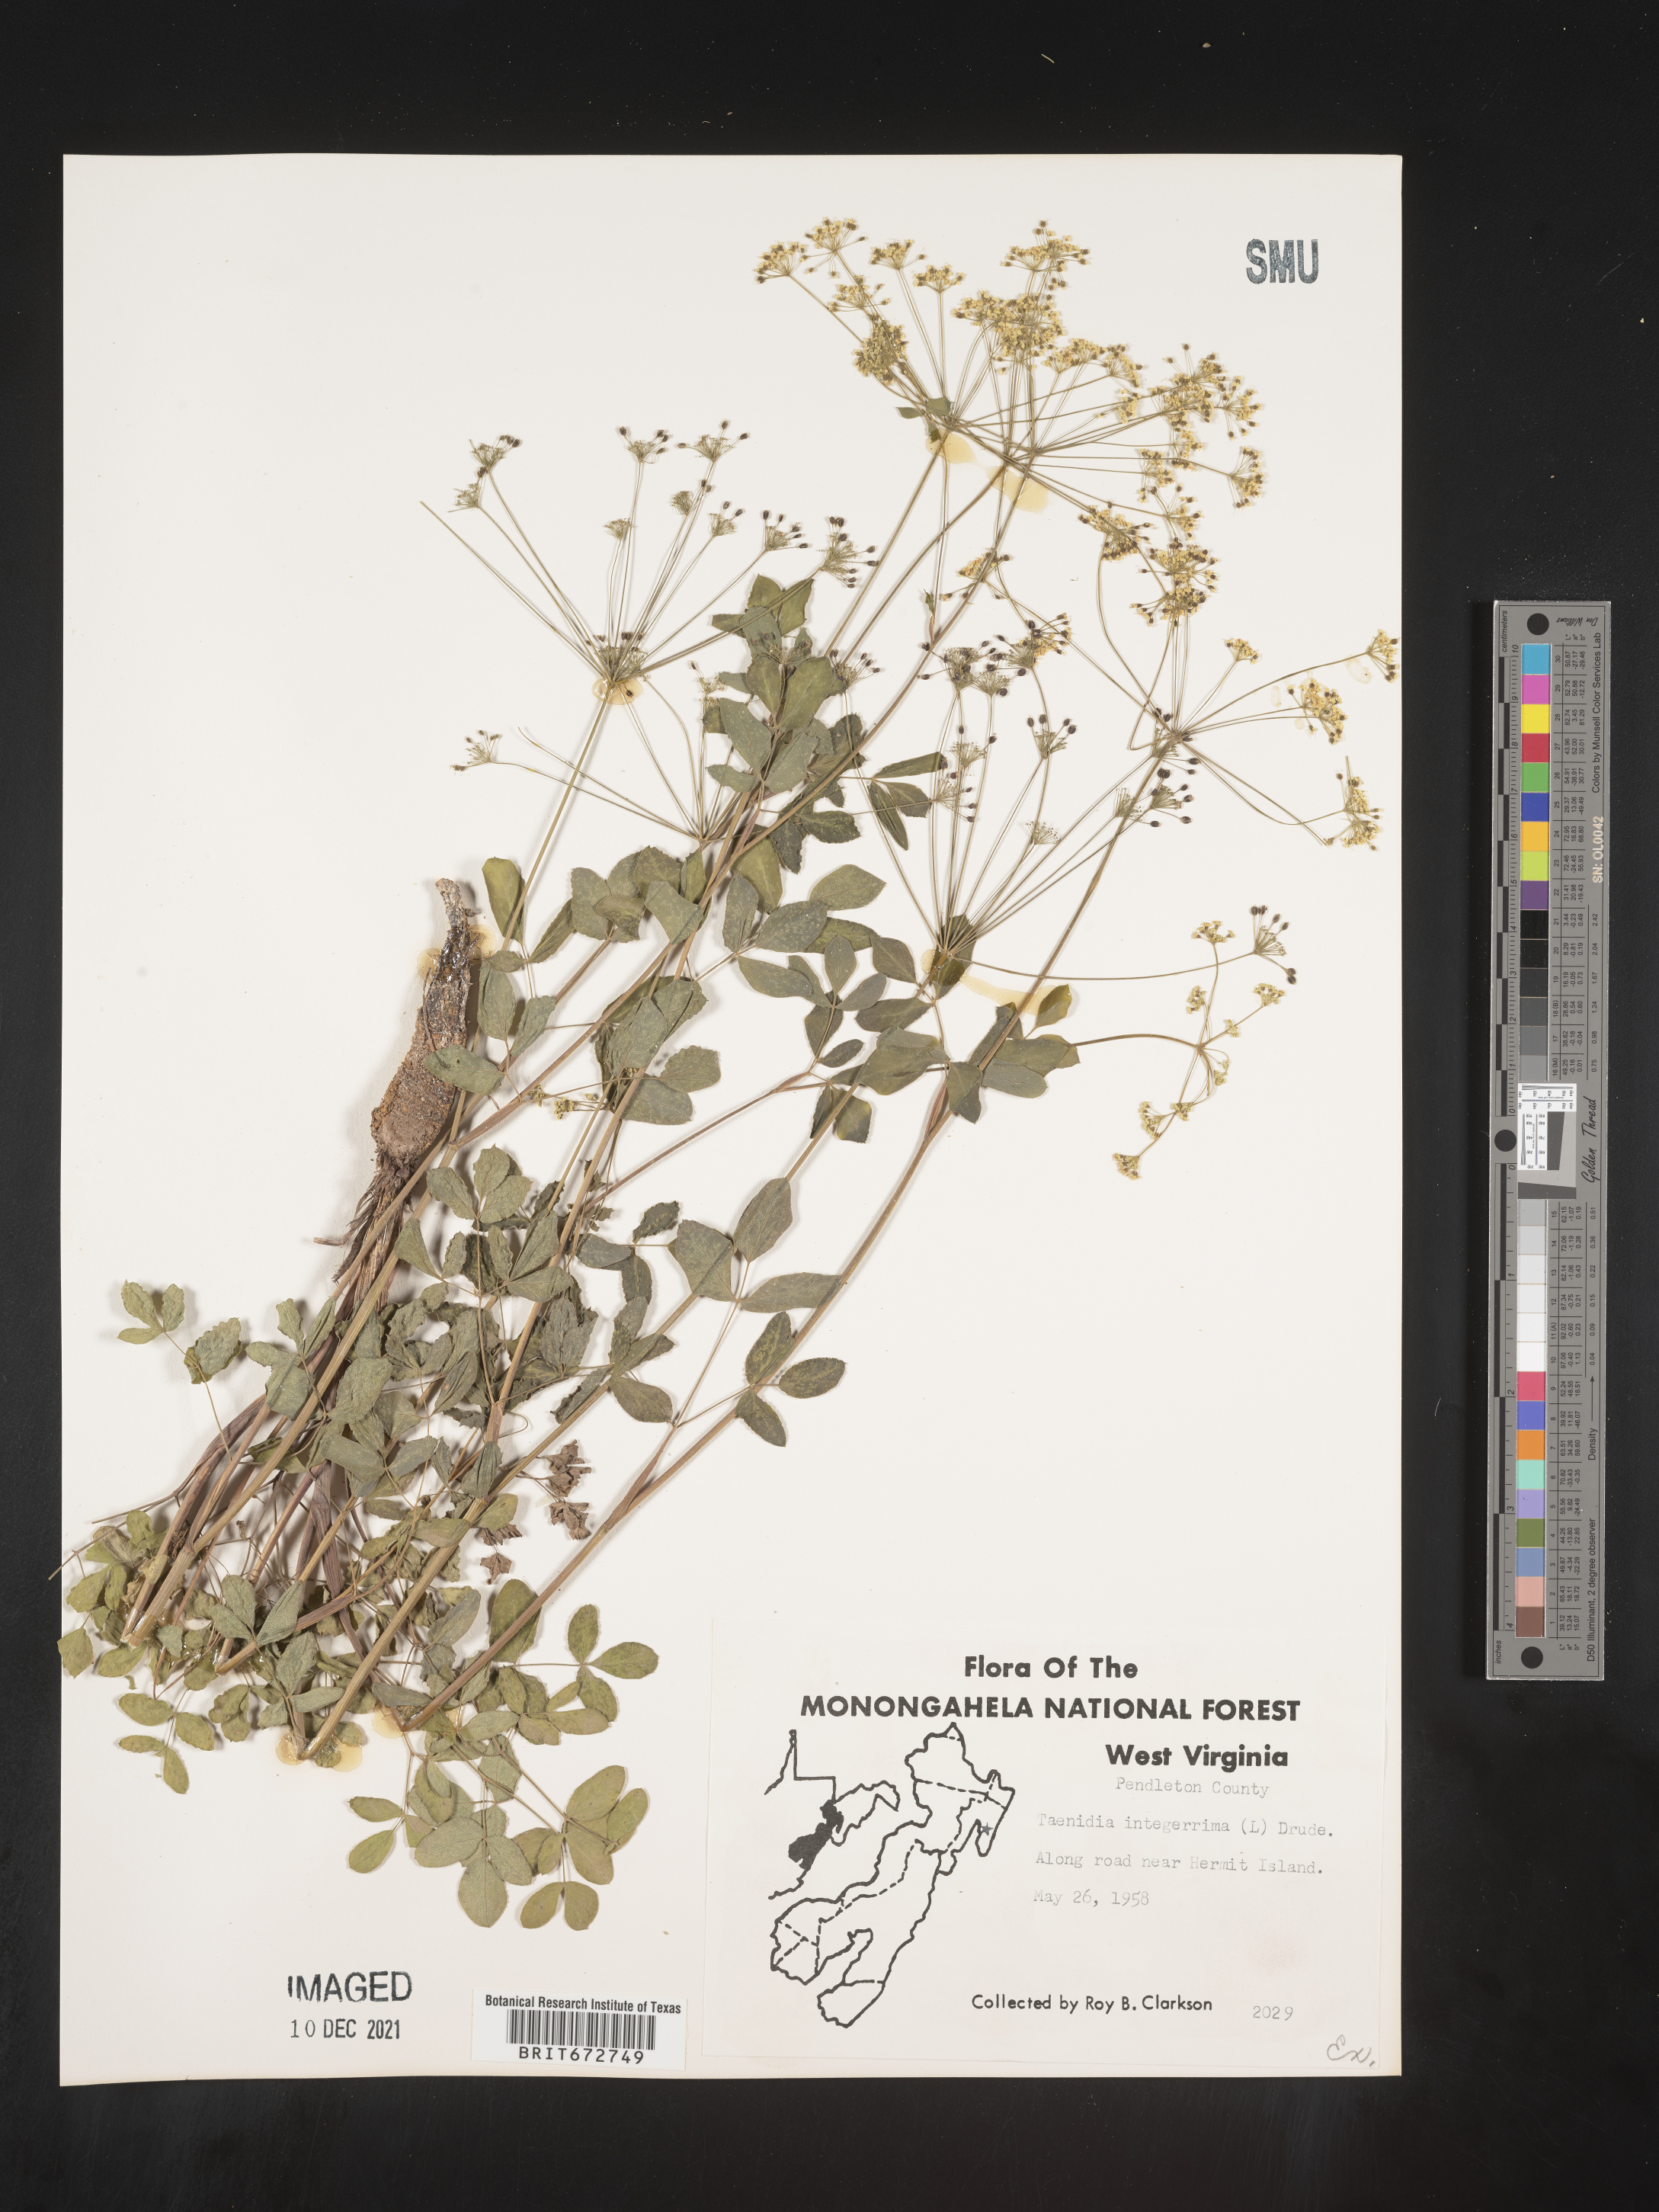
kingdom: Plantae
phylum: Tracheophyta
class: Magnoliopsida
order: Apiales
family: Apiaceae
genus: Taenidia
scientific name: Taenidia
